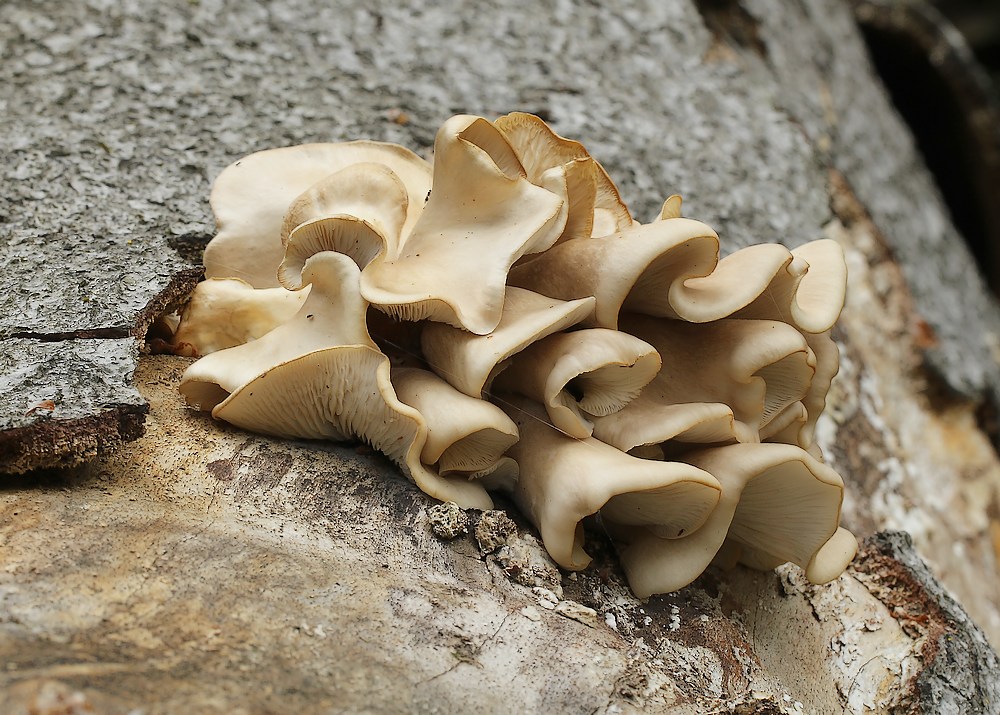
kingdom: Fungi
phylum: Basidiomycota
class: Agaricomycetes
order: Agaricales
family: Pleurotaceae
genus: Pleurotus
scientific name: Pleurotus pulmonarius
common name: sommer-østershat
